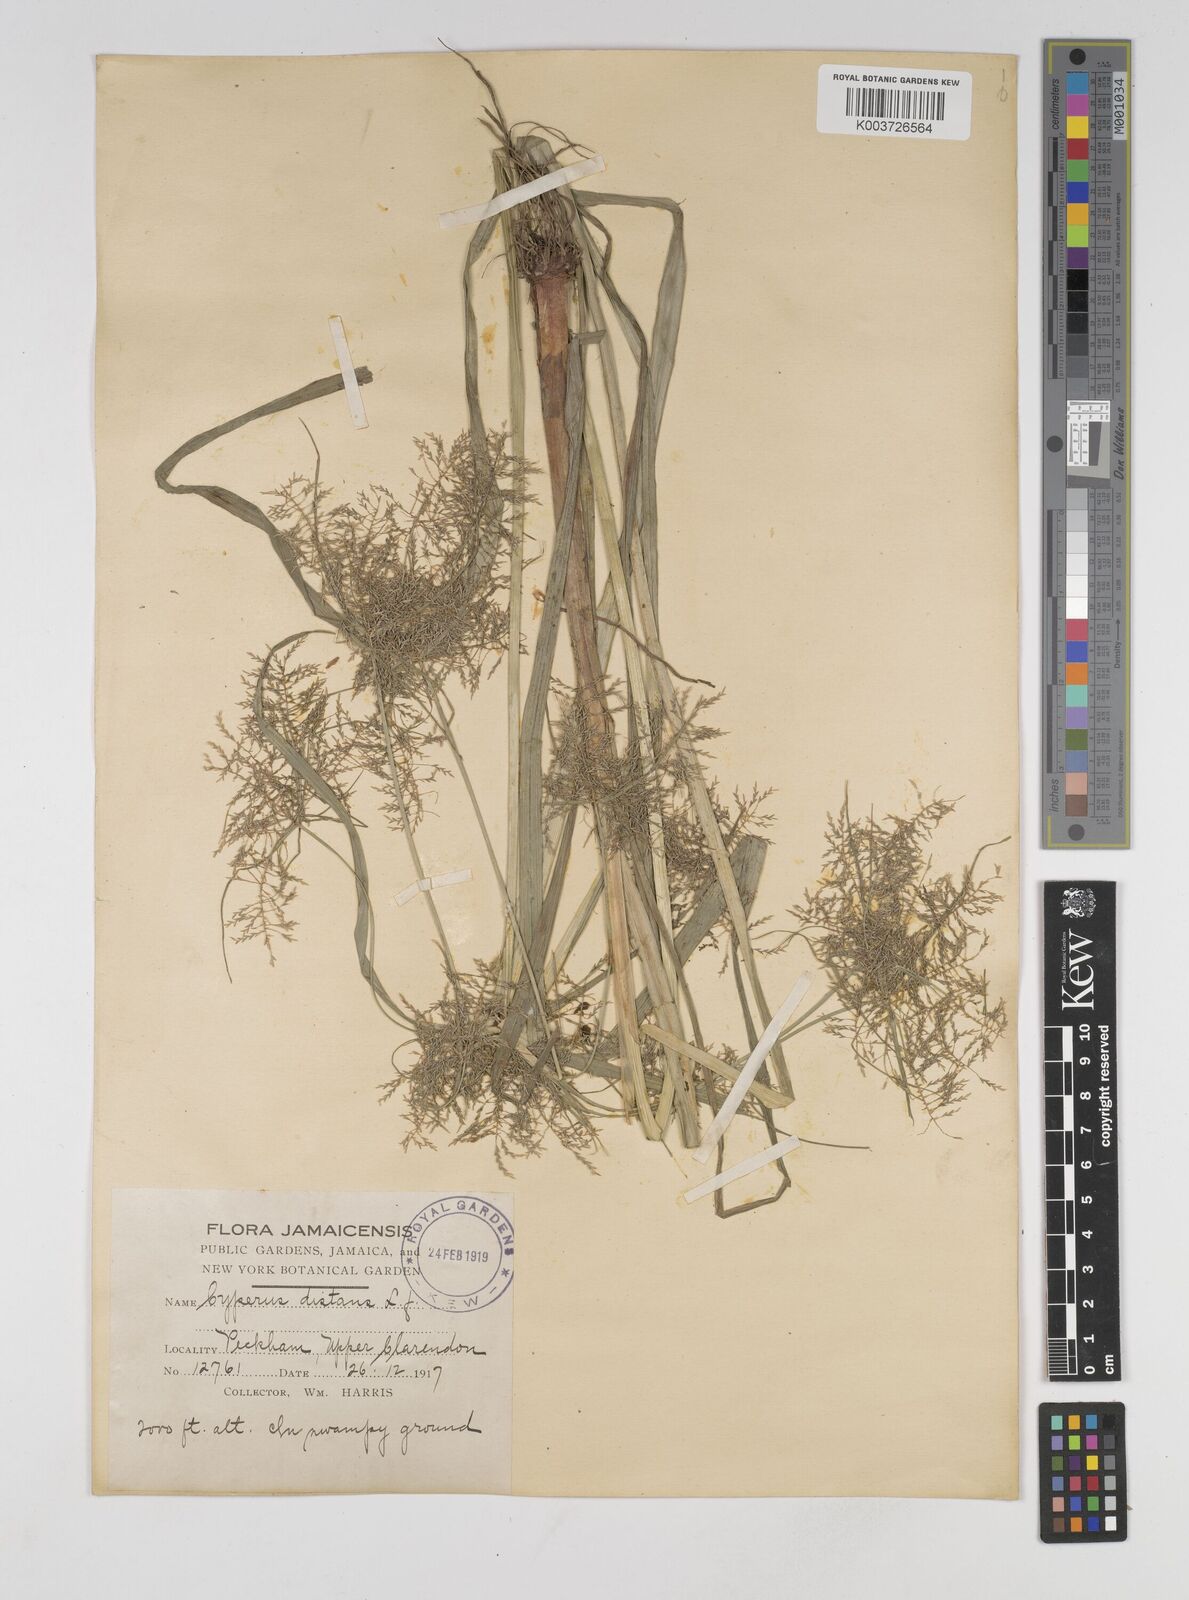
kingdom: Plantae
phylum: Tracheophyta
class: Liliopsida
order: Poales
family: Cyperaceae
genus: Cyperus
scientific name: Cyperus distans
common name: Slender cyperus
